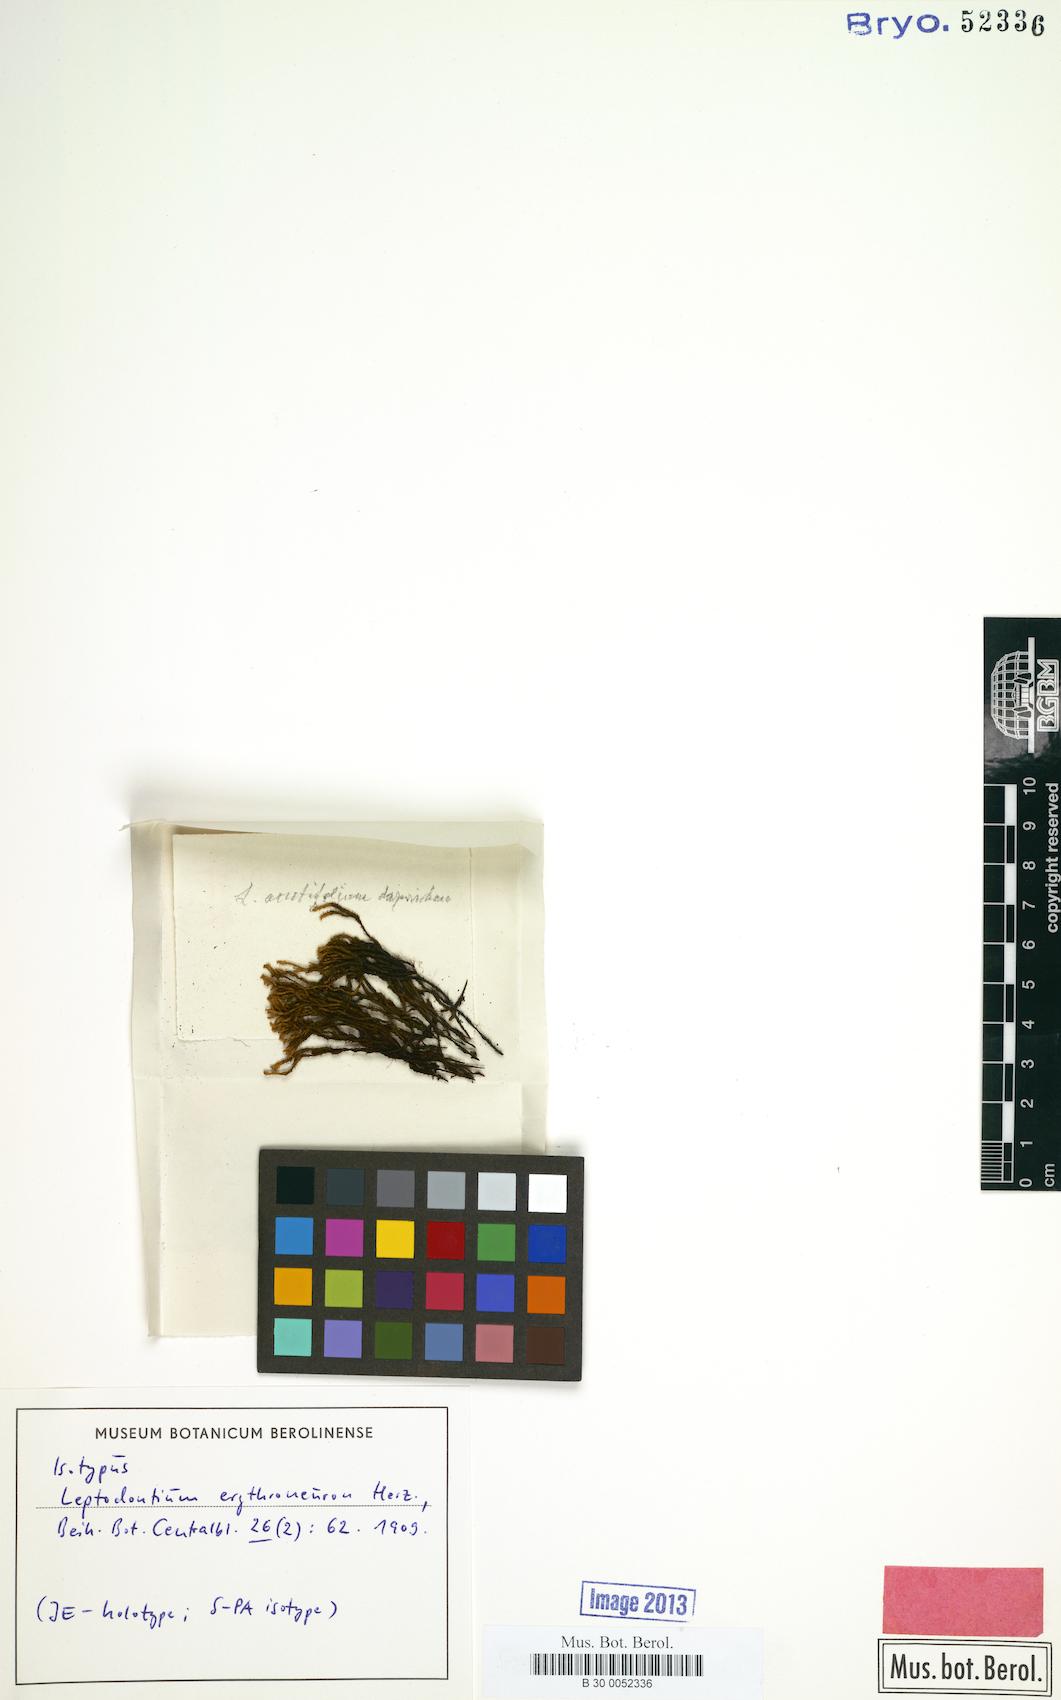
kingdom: Plantae
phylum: Bryophyta
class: Bryopsida
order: Pottiales
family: Pottiaceae
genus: Leptodontium
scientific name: Leptodontium erythroneuron
